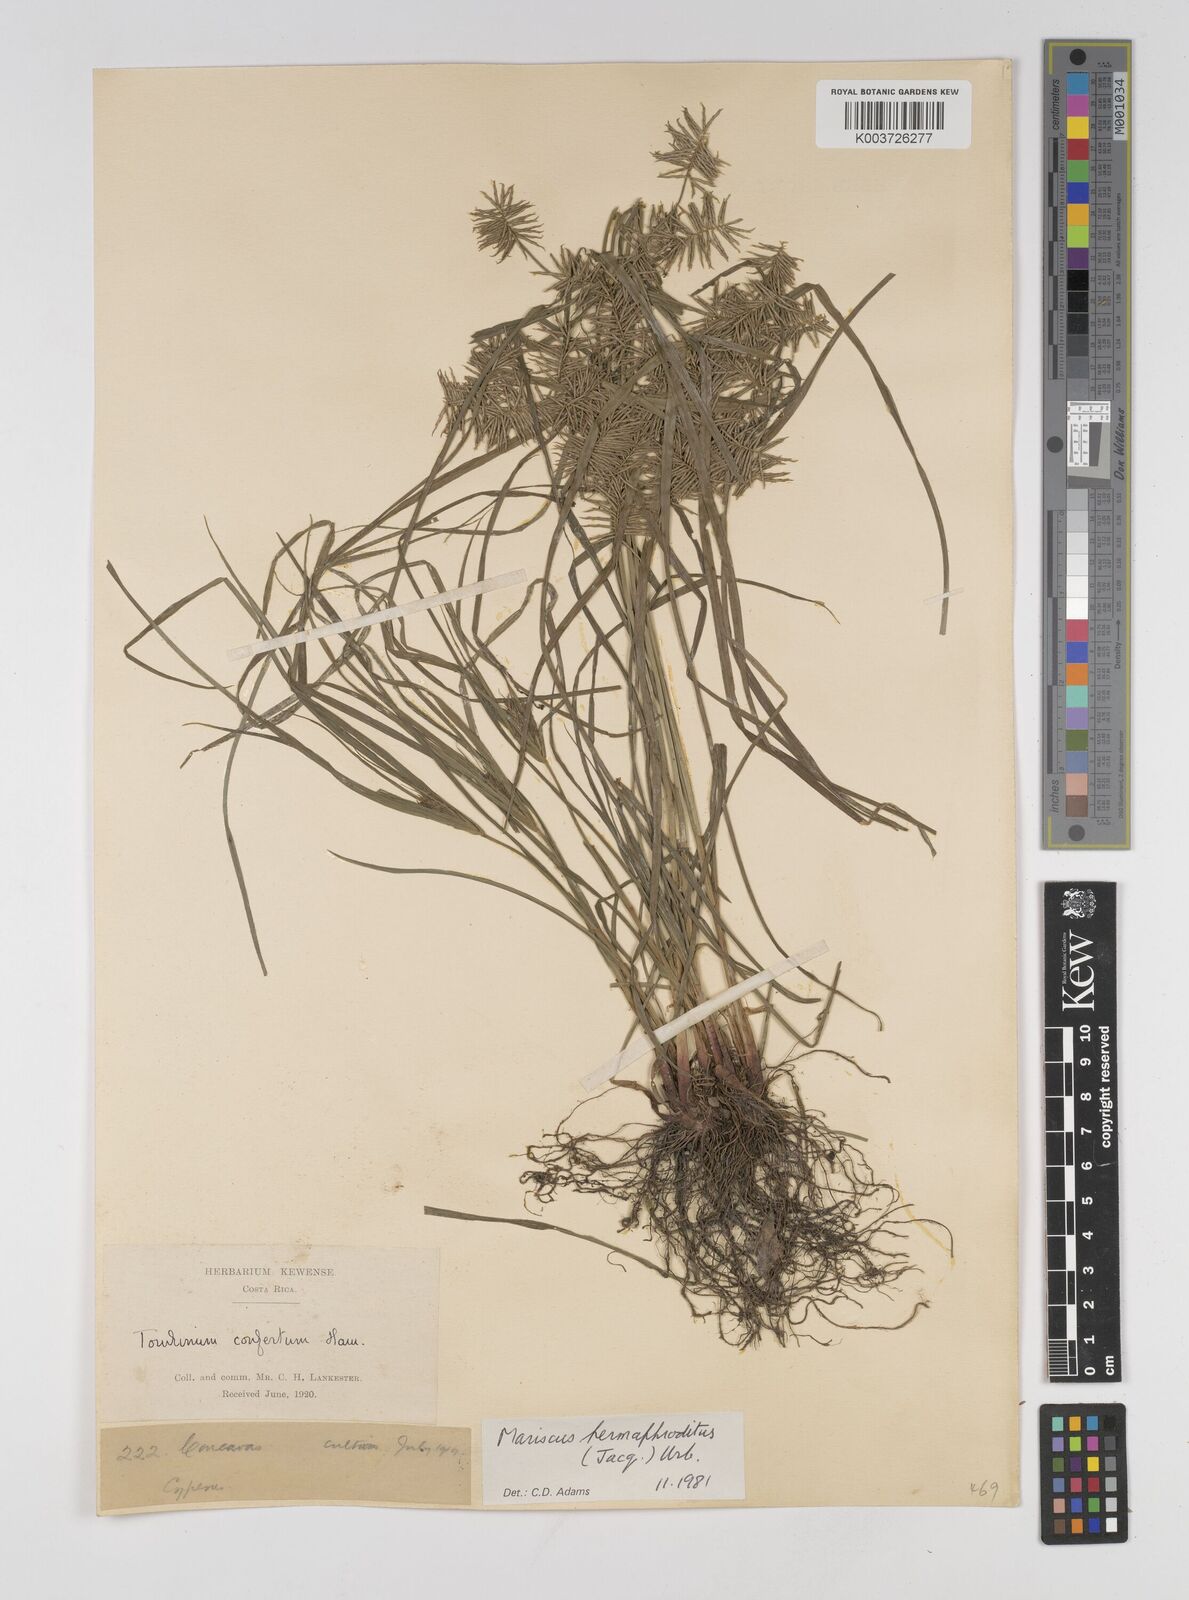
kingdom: Plantae
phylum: Tracheophyta
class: Liliopsida
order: Poales
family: Cyperaceae
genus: Cyperus
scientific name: Cyperus hermaphroditus
